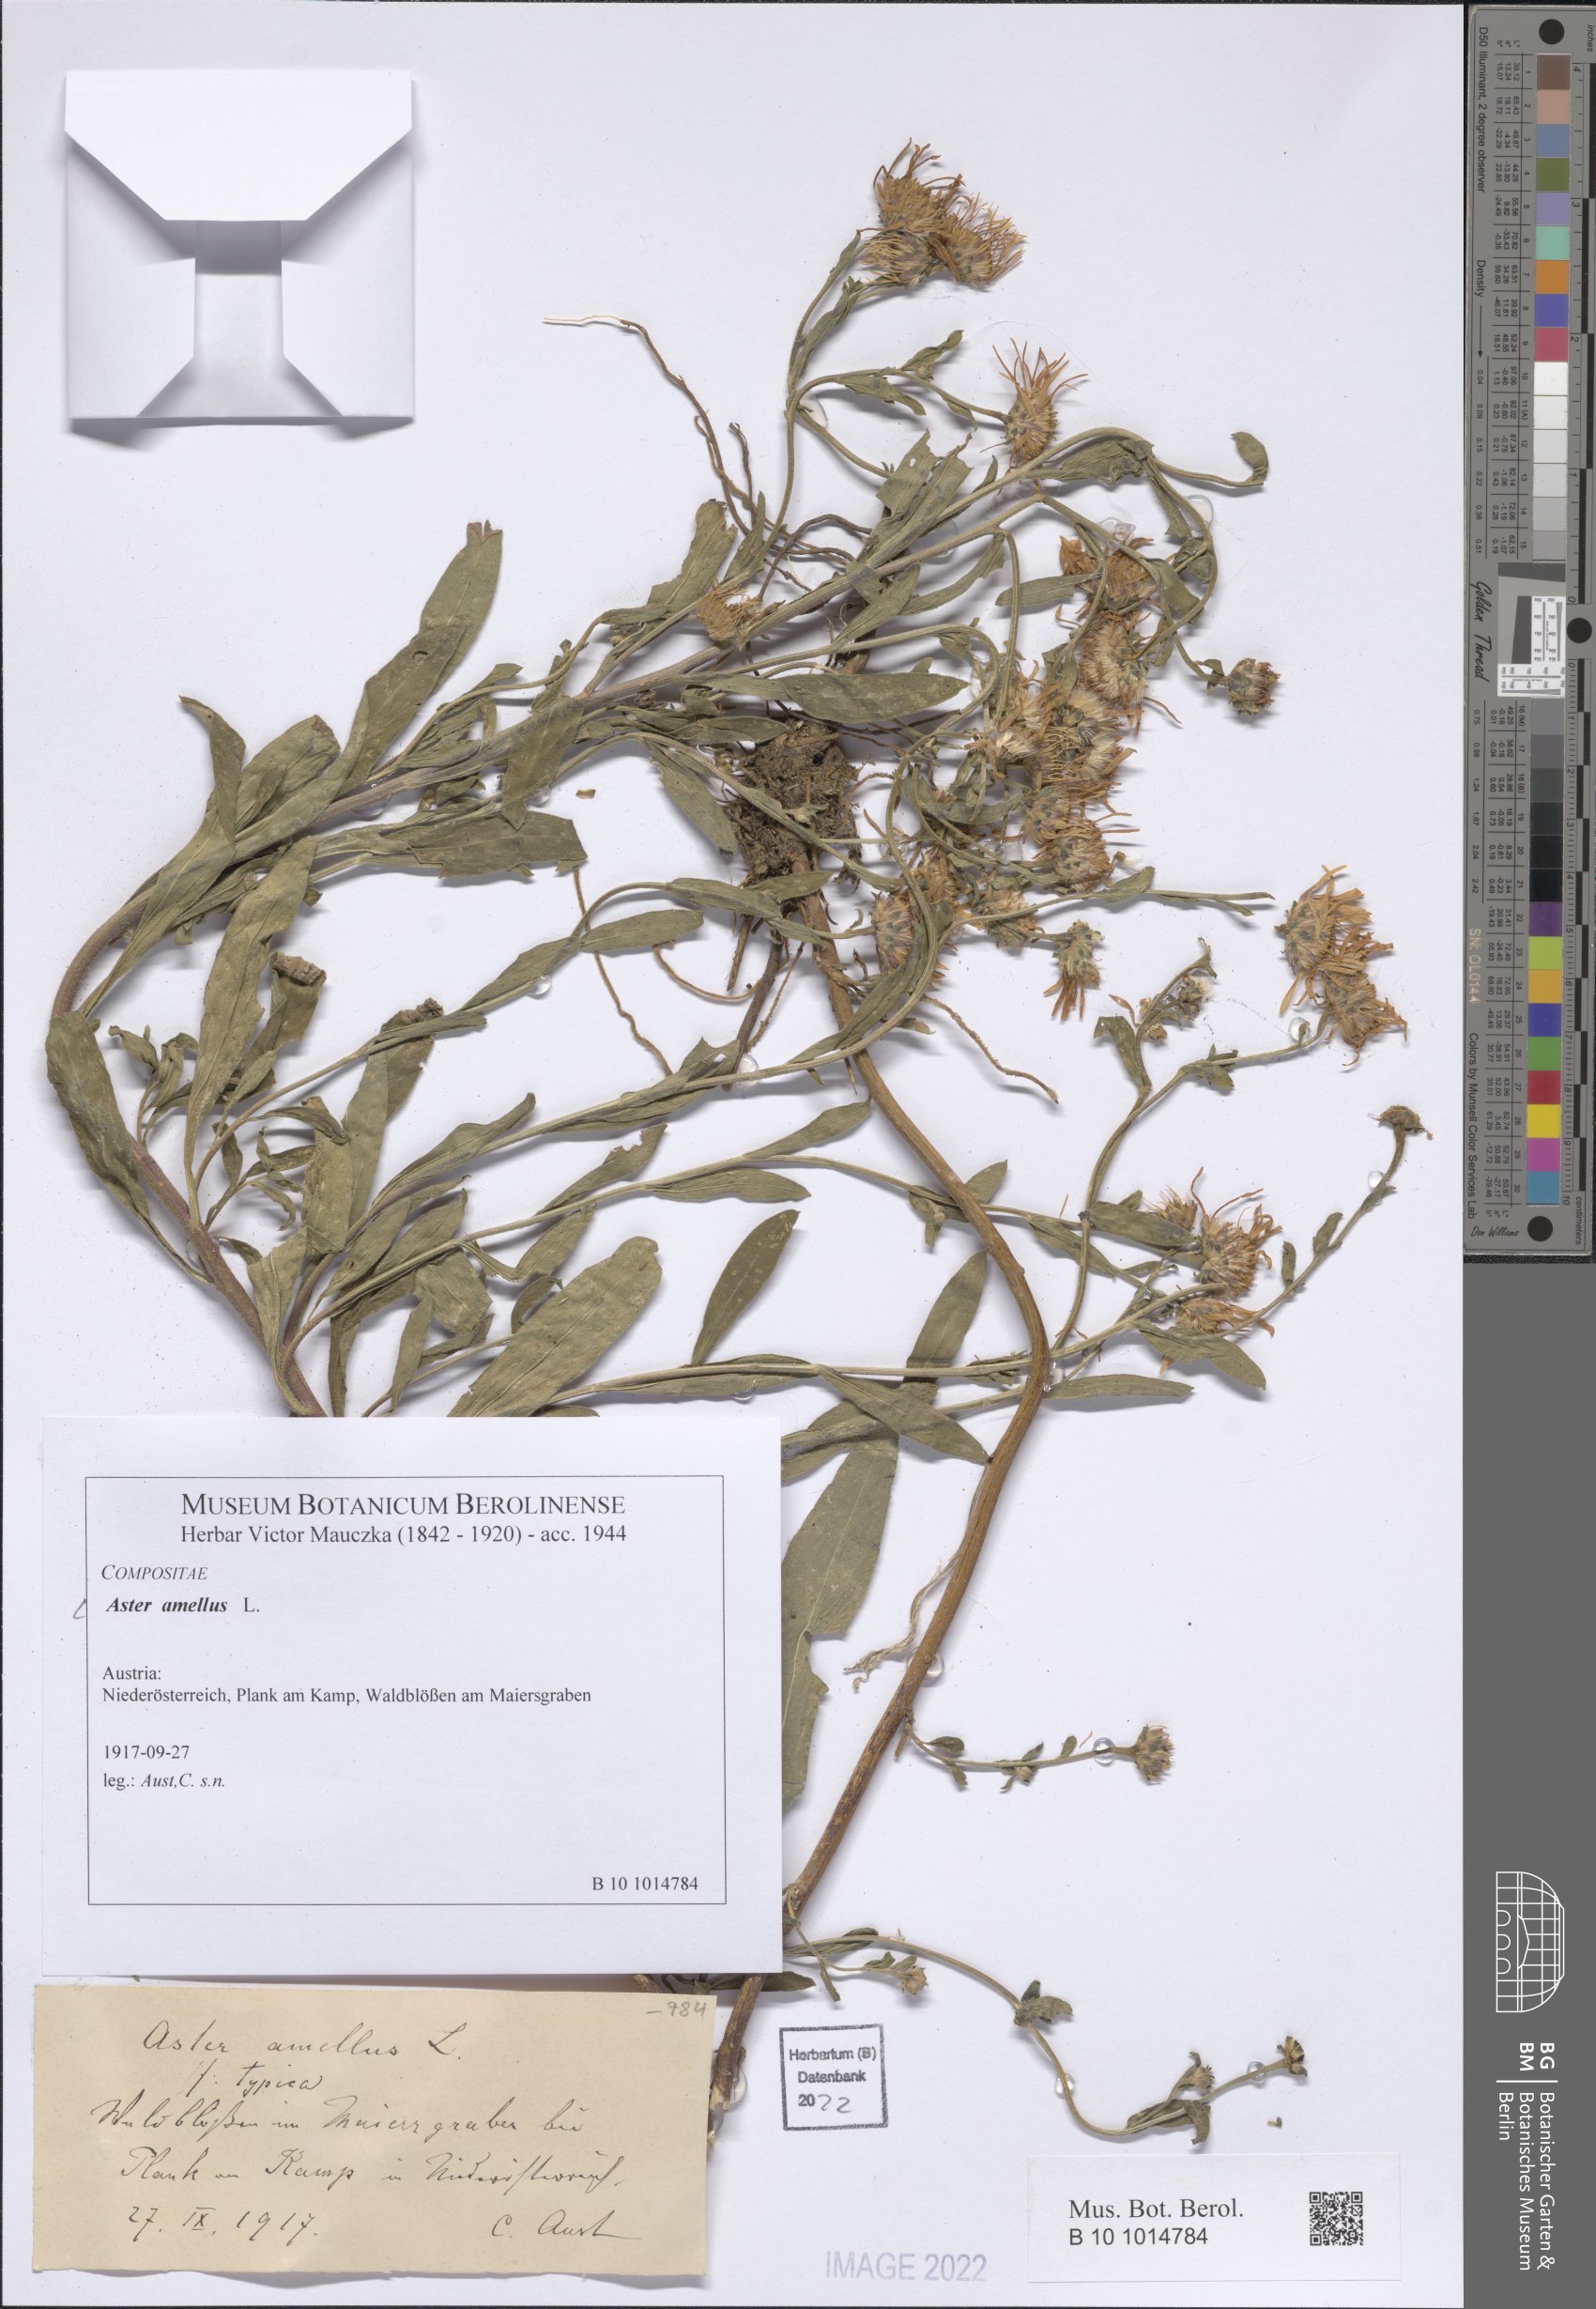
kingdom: Plantae
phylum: Tracheophyta
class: Magnoliopsida
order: Asterales
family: Asteraceae
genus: Aster
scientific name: Aster amellus
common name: European michaelmas daisy
